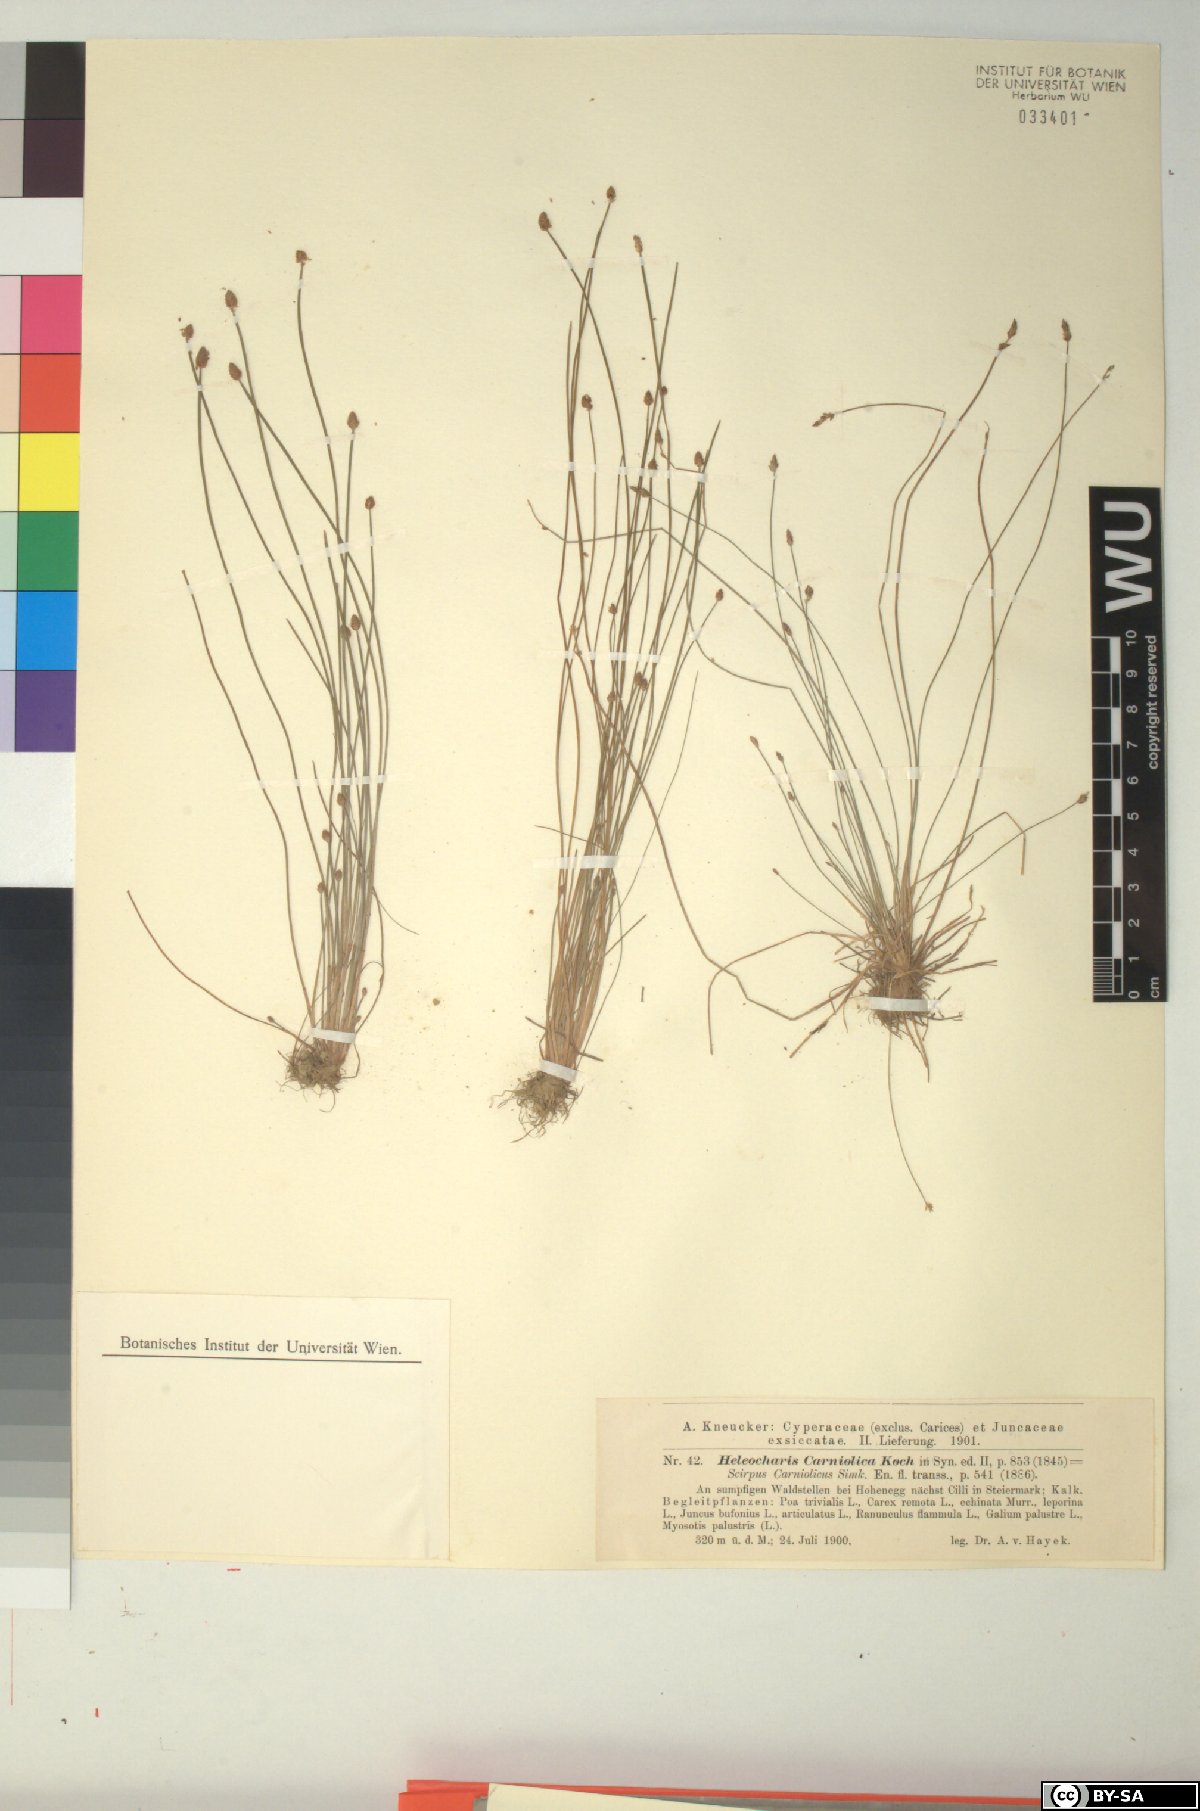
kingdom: Plantae
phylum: Tracheophyta
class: Liliopsida
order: Poales
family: Cyperaceae
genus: Eleocharis
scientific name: Eleocharis carniolica
